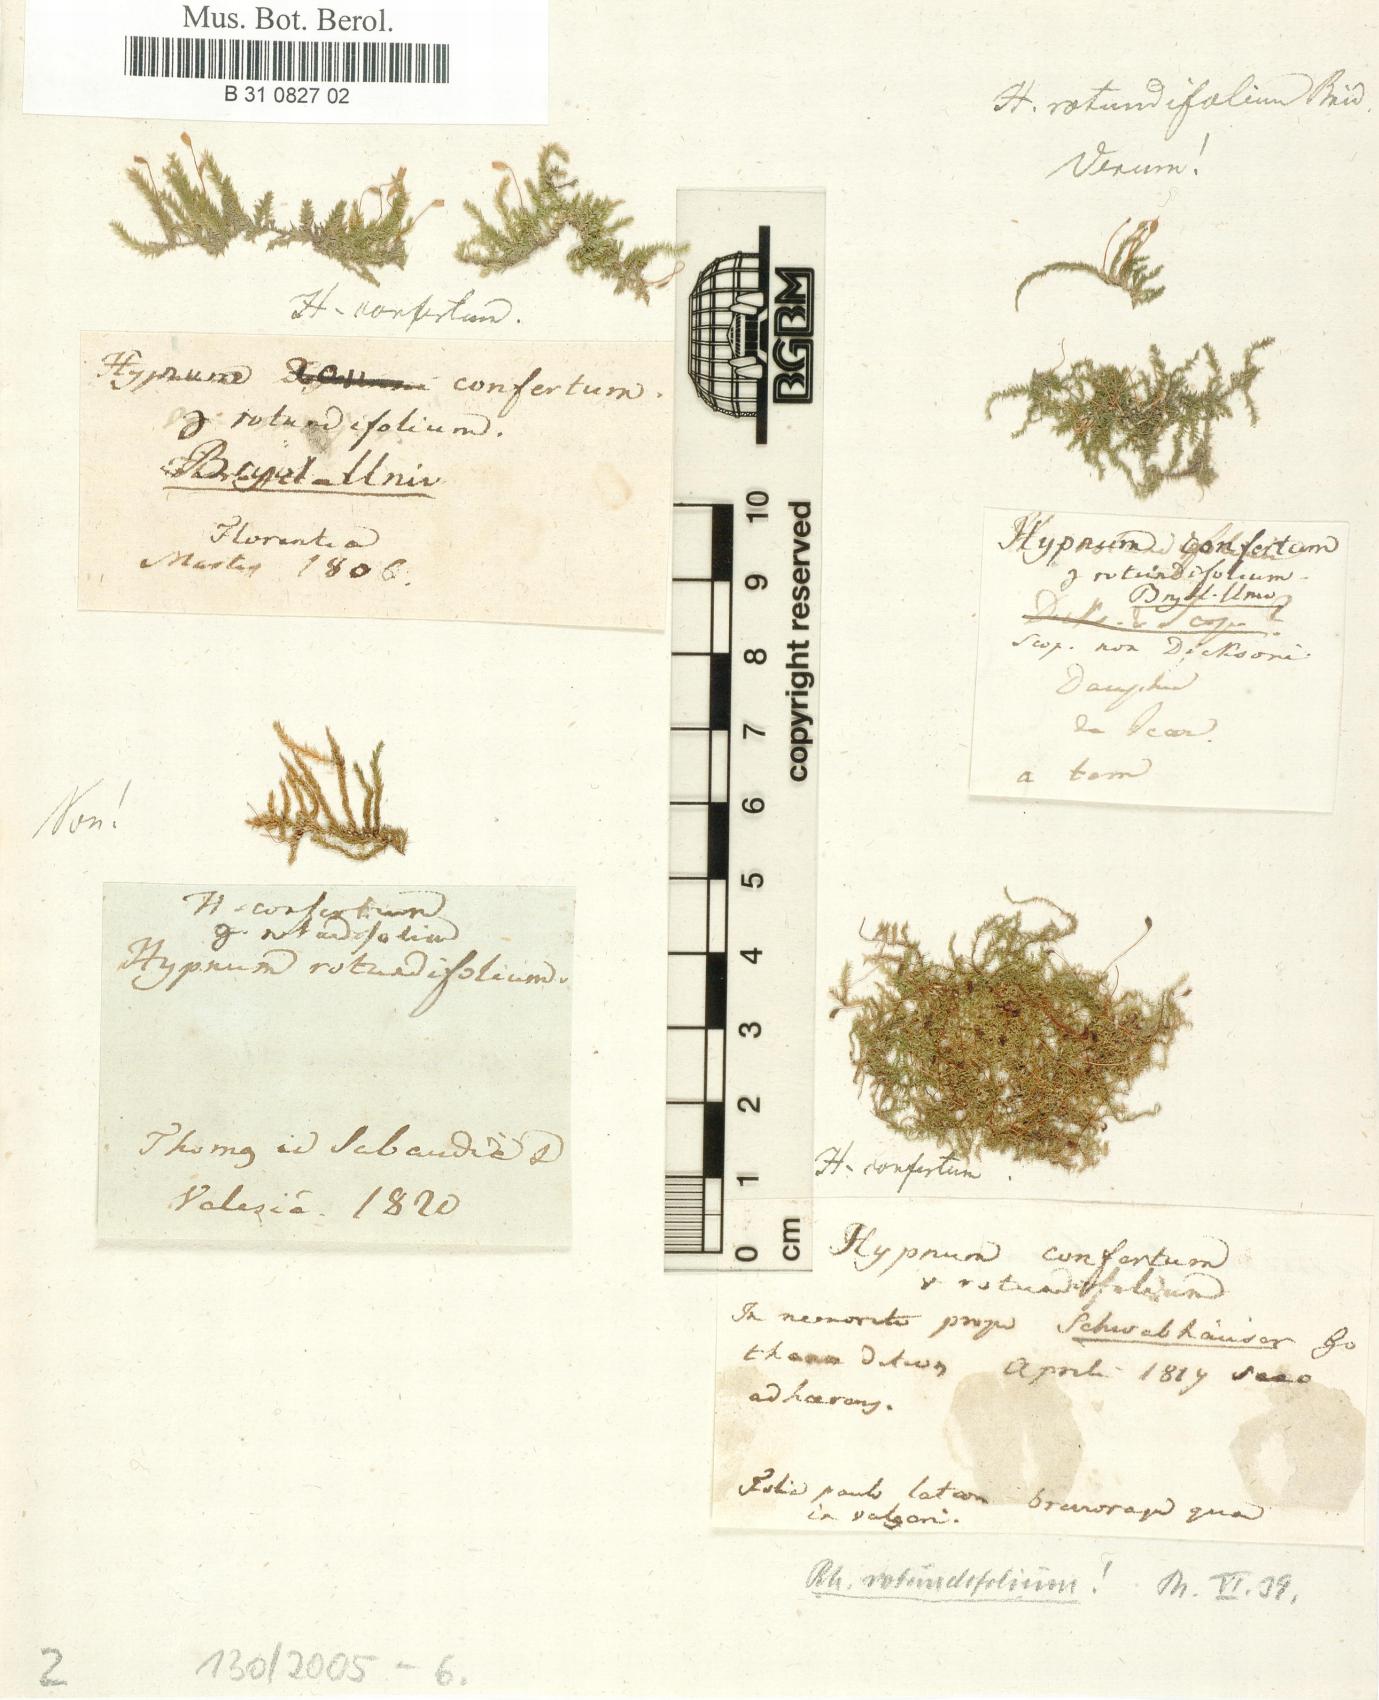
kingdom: Plantae
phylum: Bryophyta
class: Bryopsida
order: Hypnales
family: Brachytheciaceae
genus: Rhynchostegium
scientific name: Rhynchostegium rotundifolium
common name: Round-leaved feather-moss
